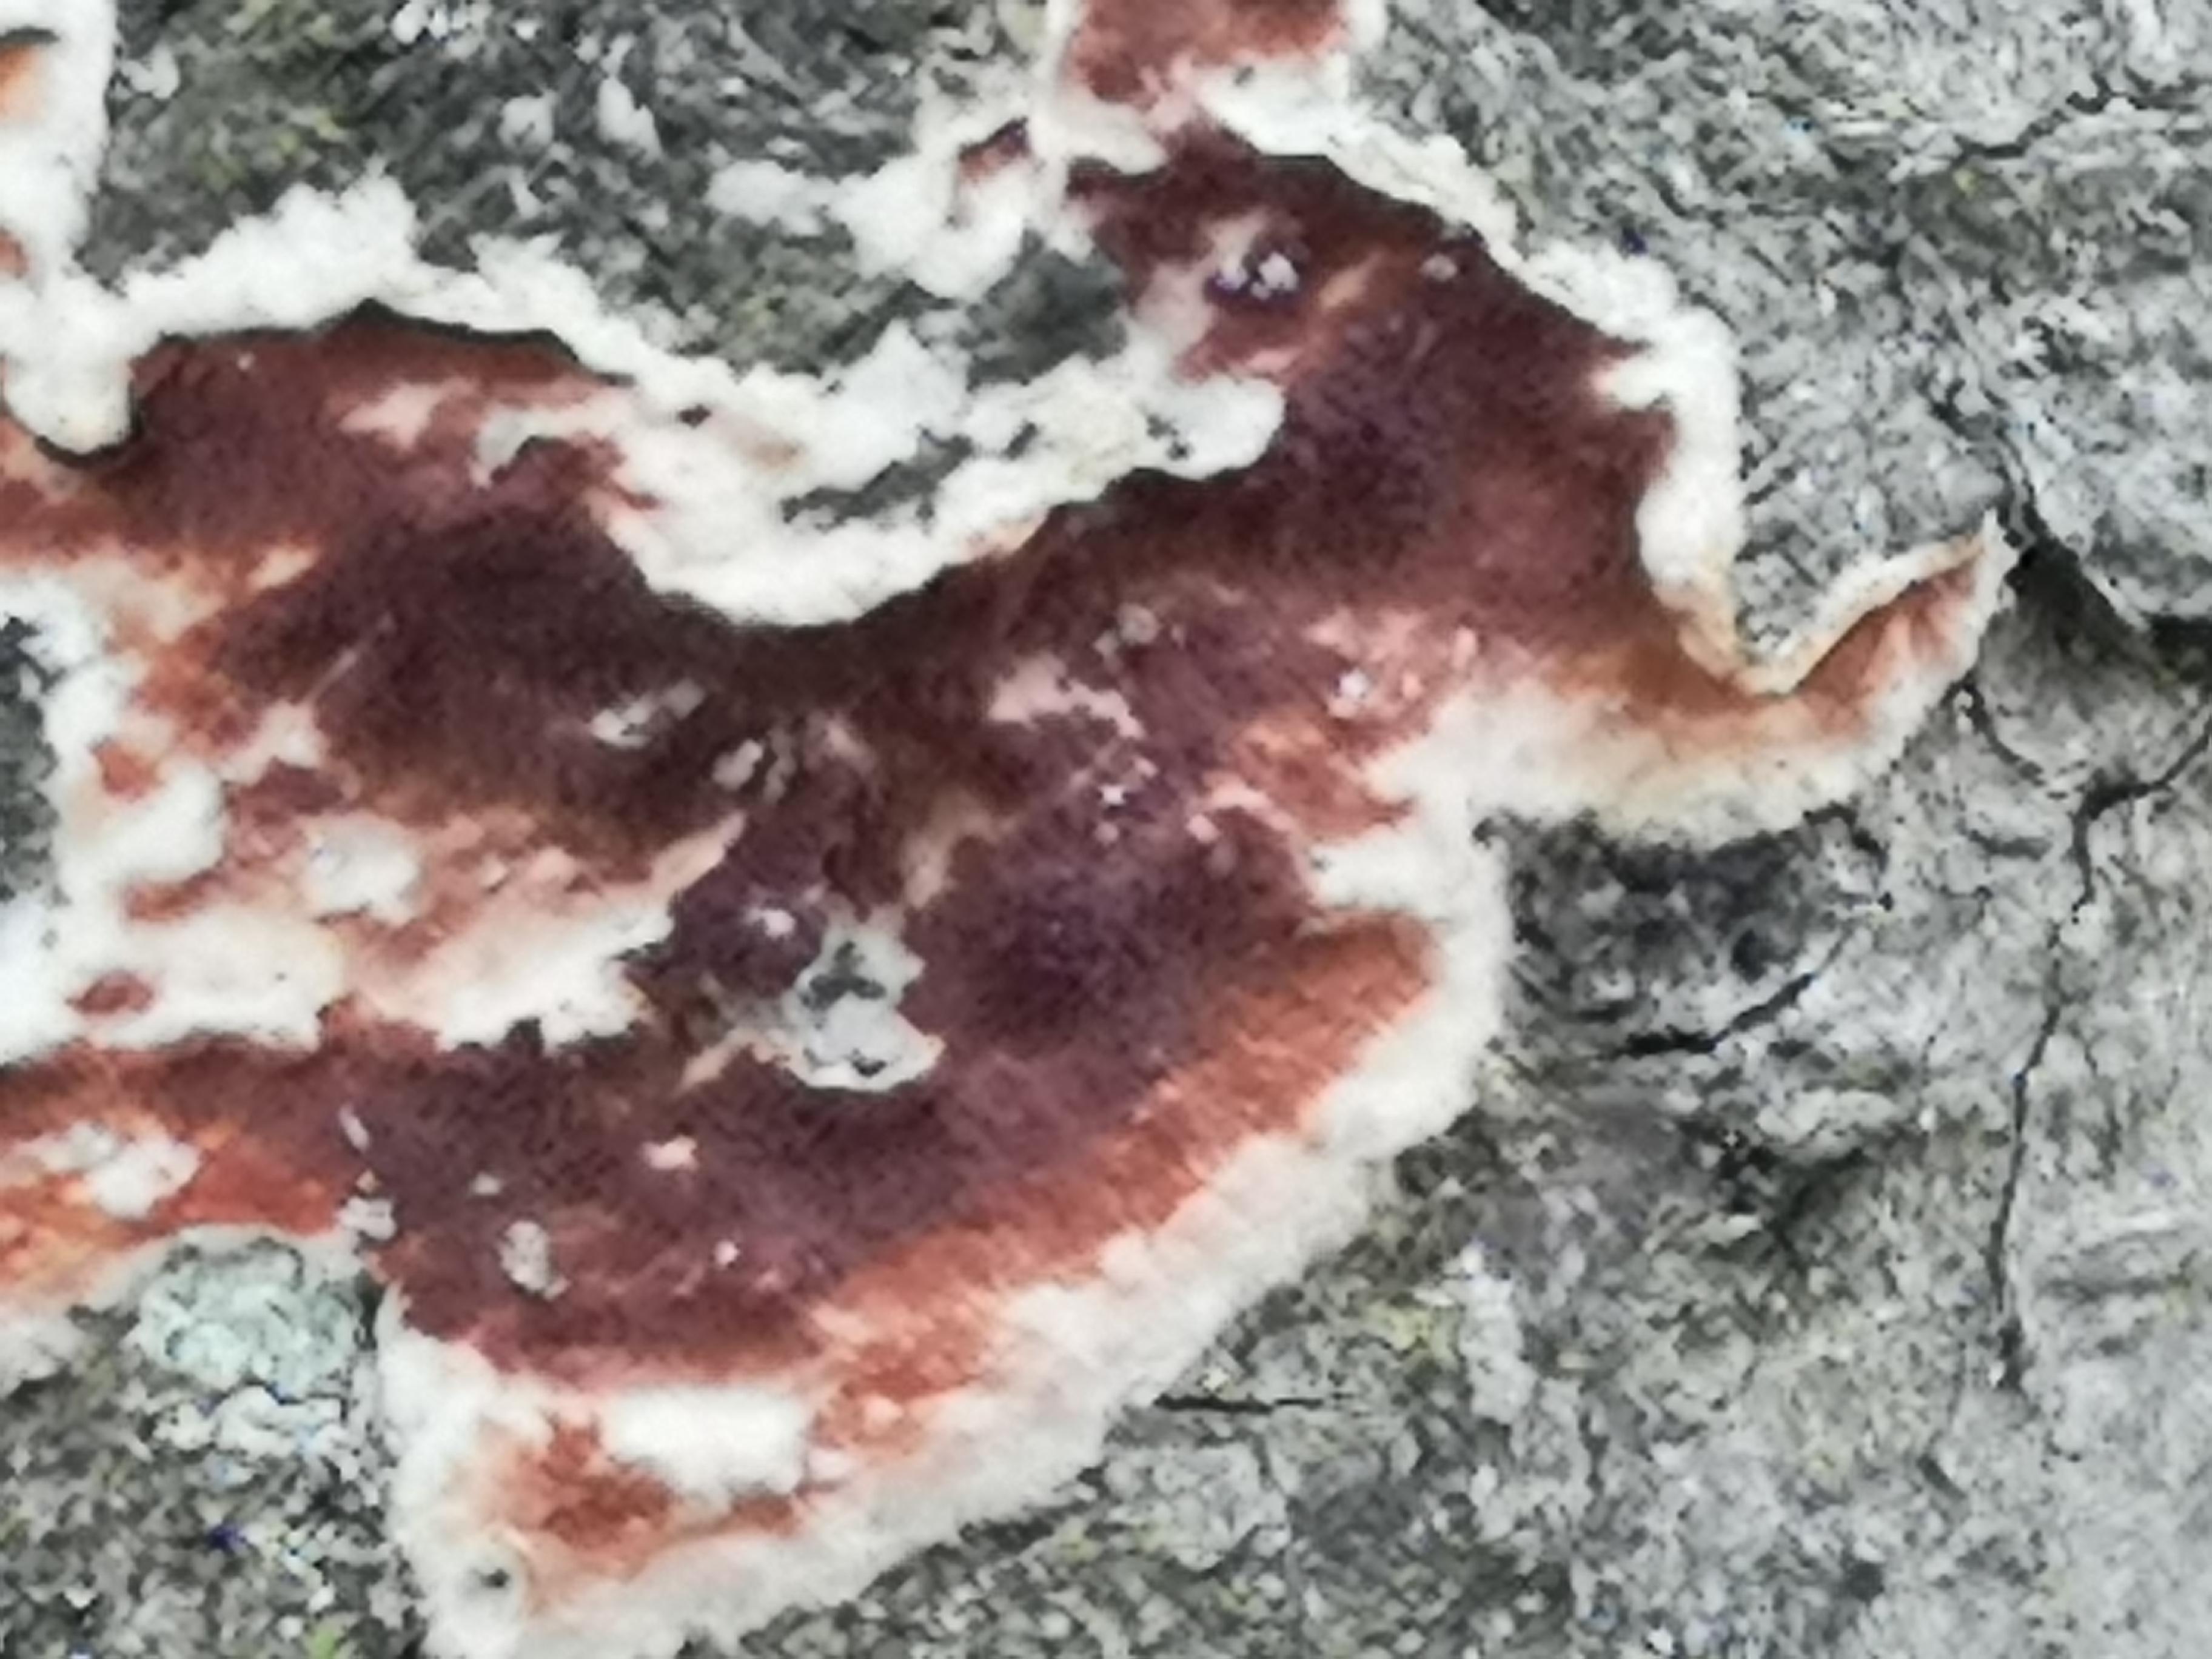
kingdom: Fungi
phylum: Basidiomycota
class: Agaricomycetes
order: Polyporales
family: Irpicaceae
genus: Meruliopsis
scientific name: Meruliopsis taxicola
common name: purpurbrun foldporesvamp
